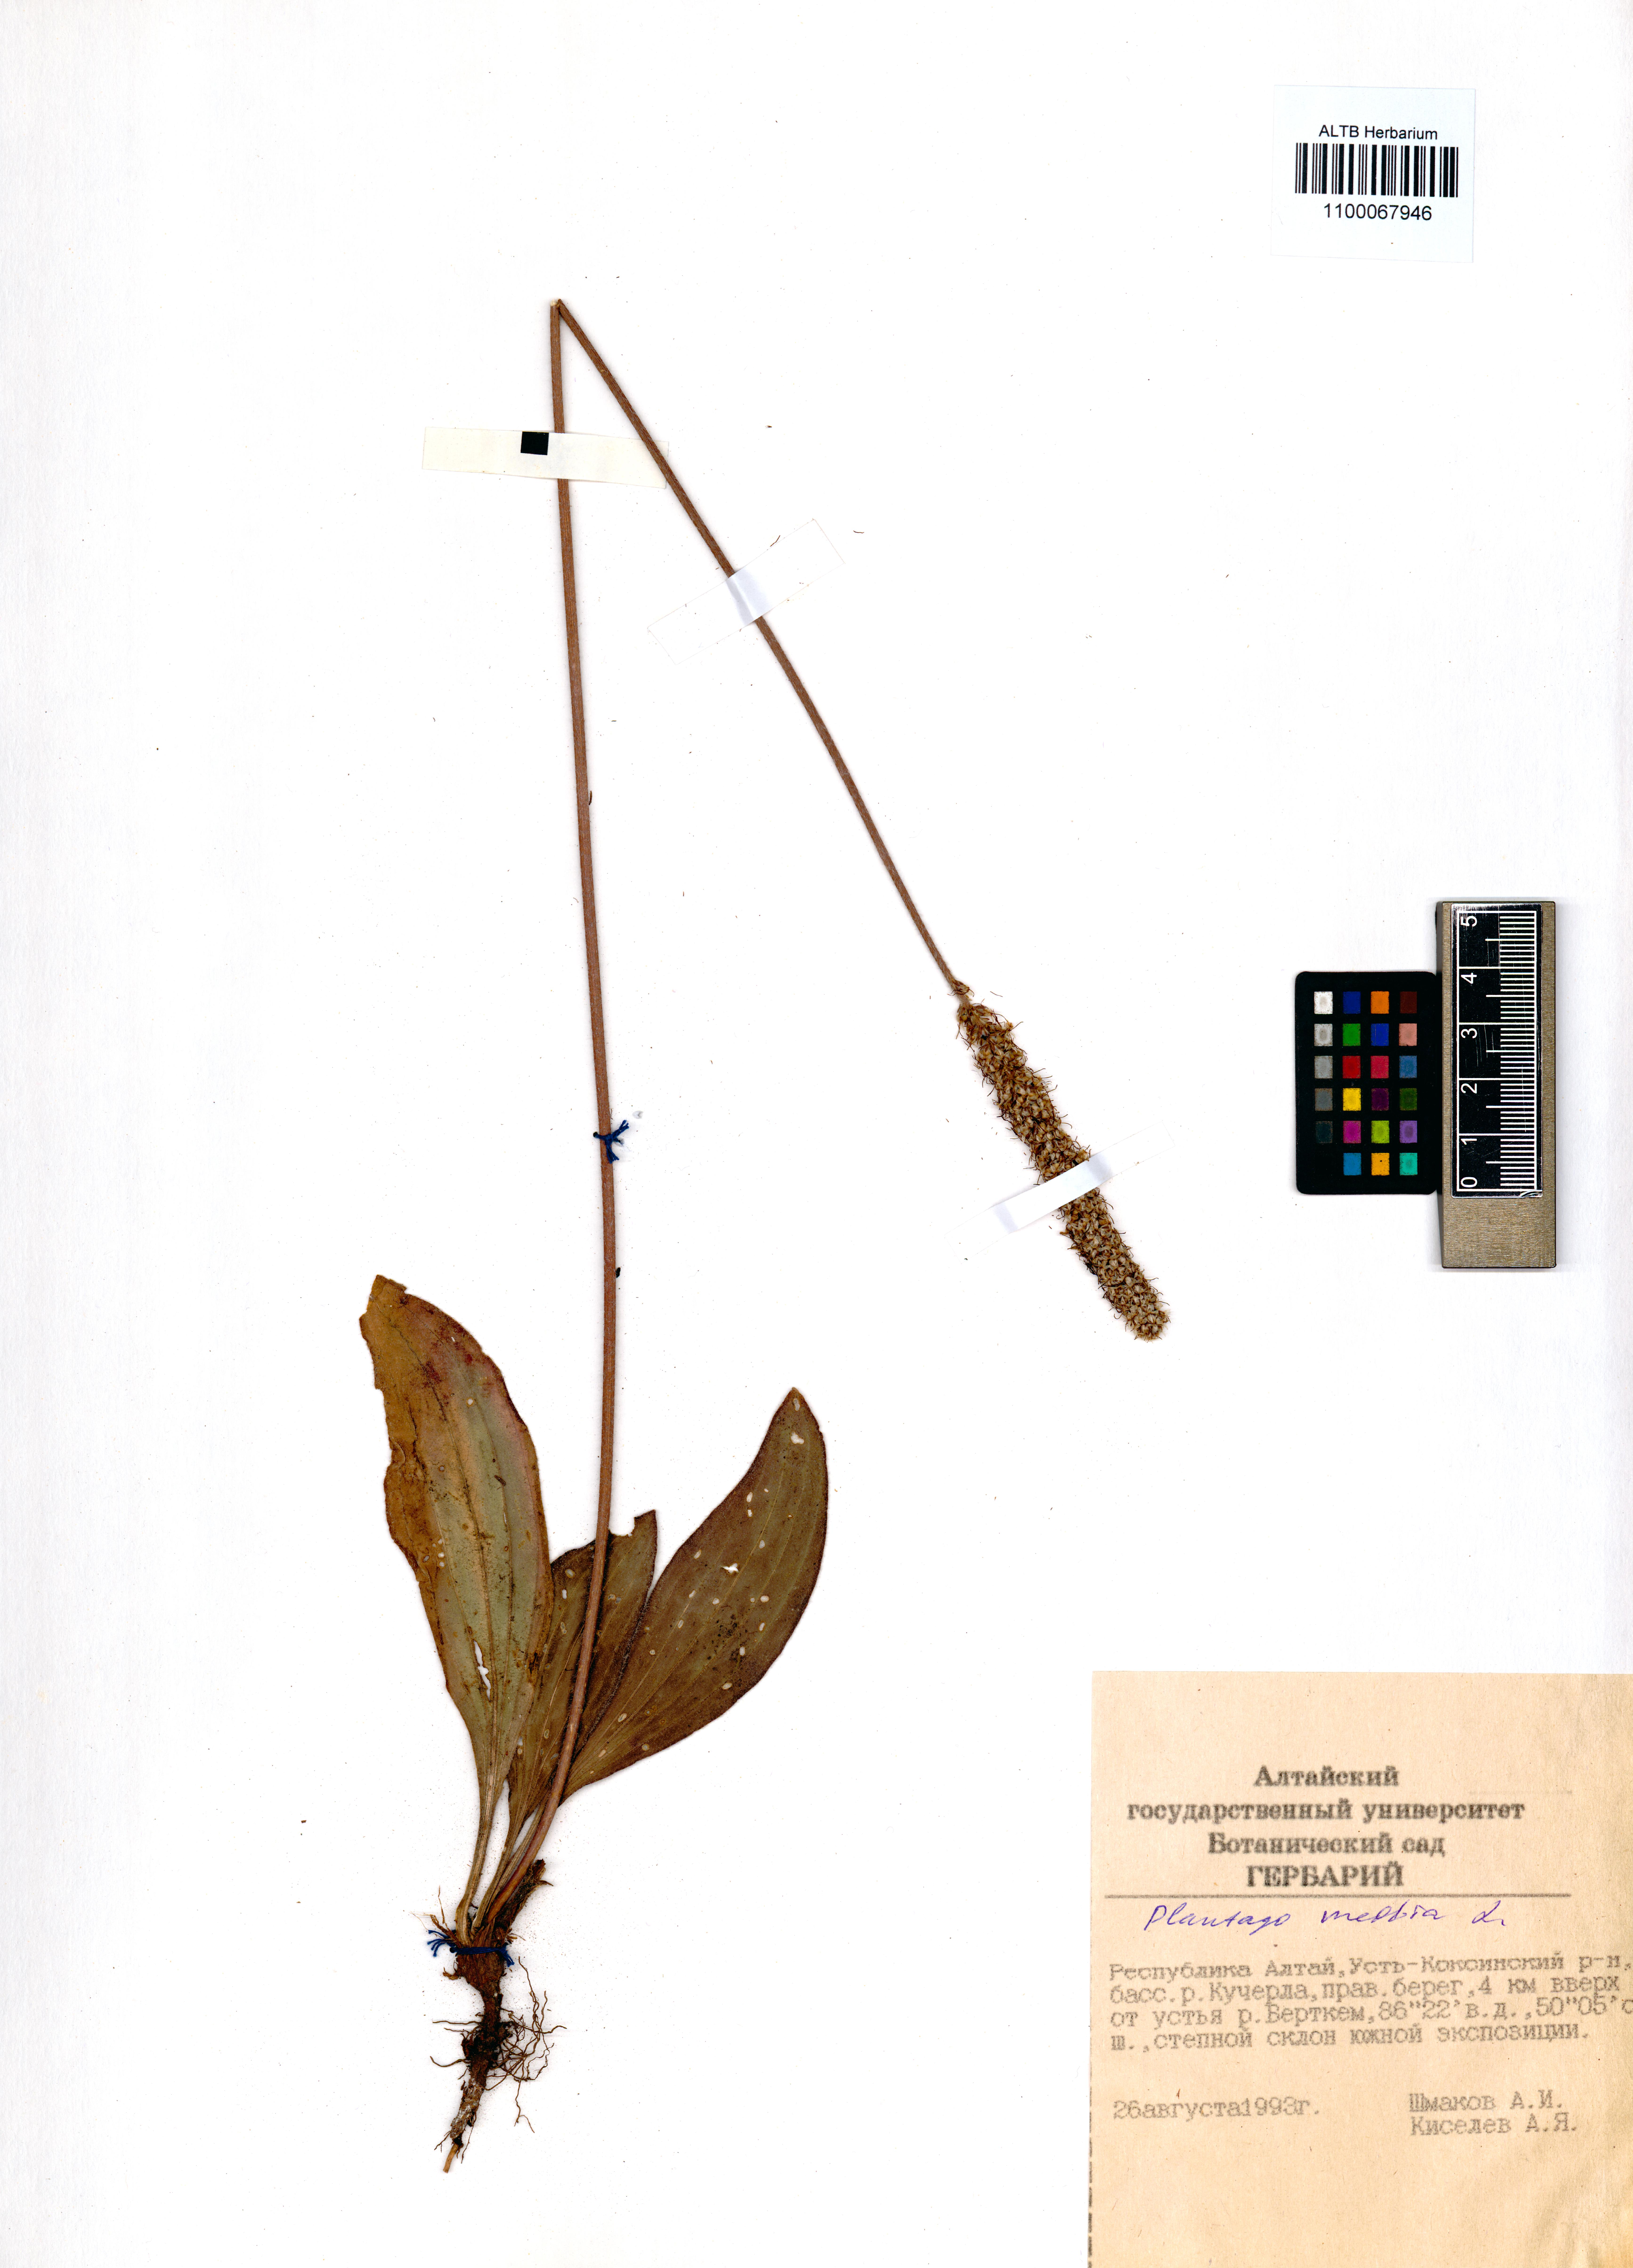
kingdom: Plantae
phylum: Tracheophyta
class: Magnoliopsida
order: Lamiales
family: Plantaginaceae
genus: Plantago
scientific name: Plantago media
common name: Hoary plantain
